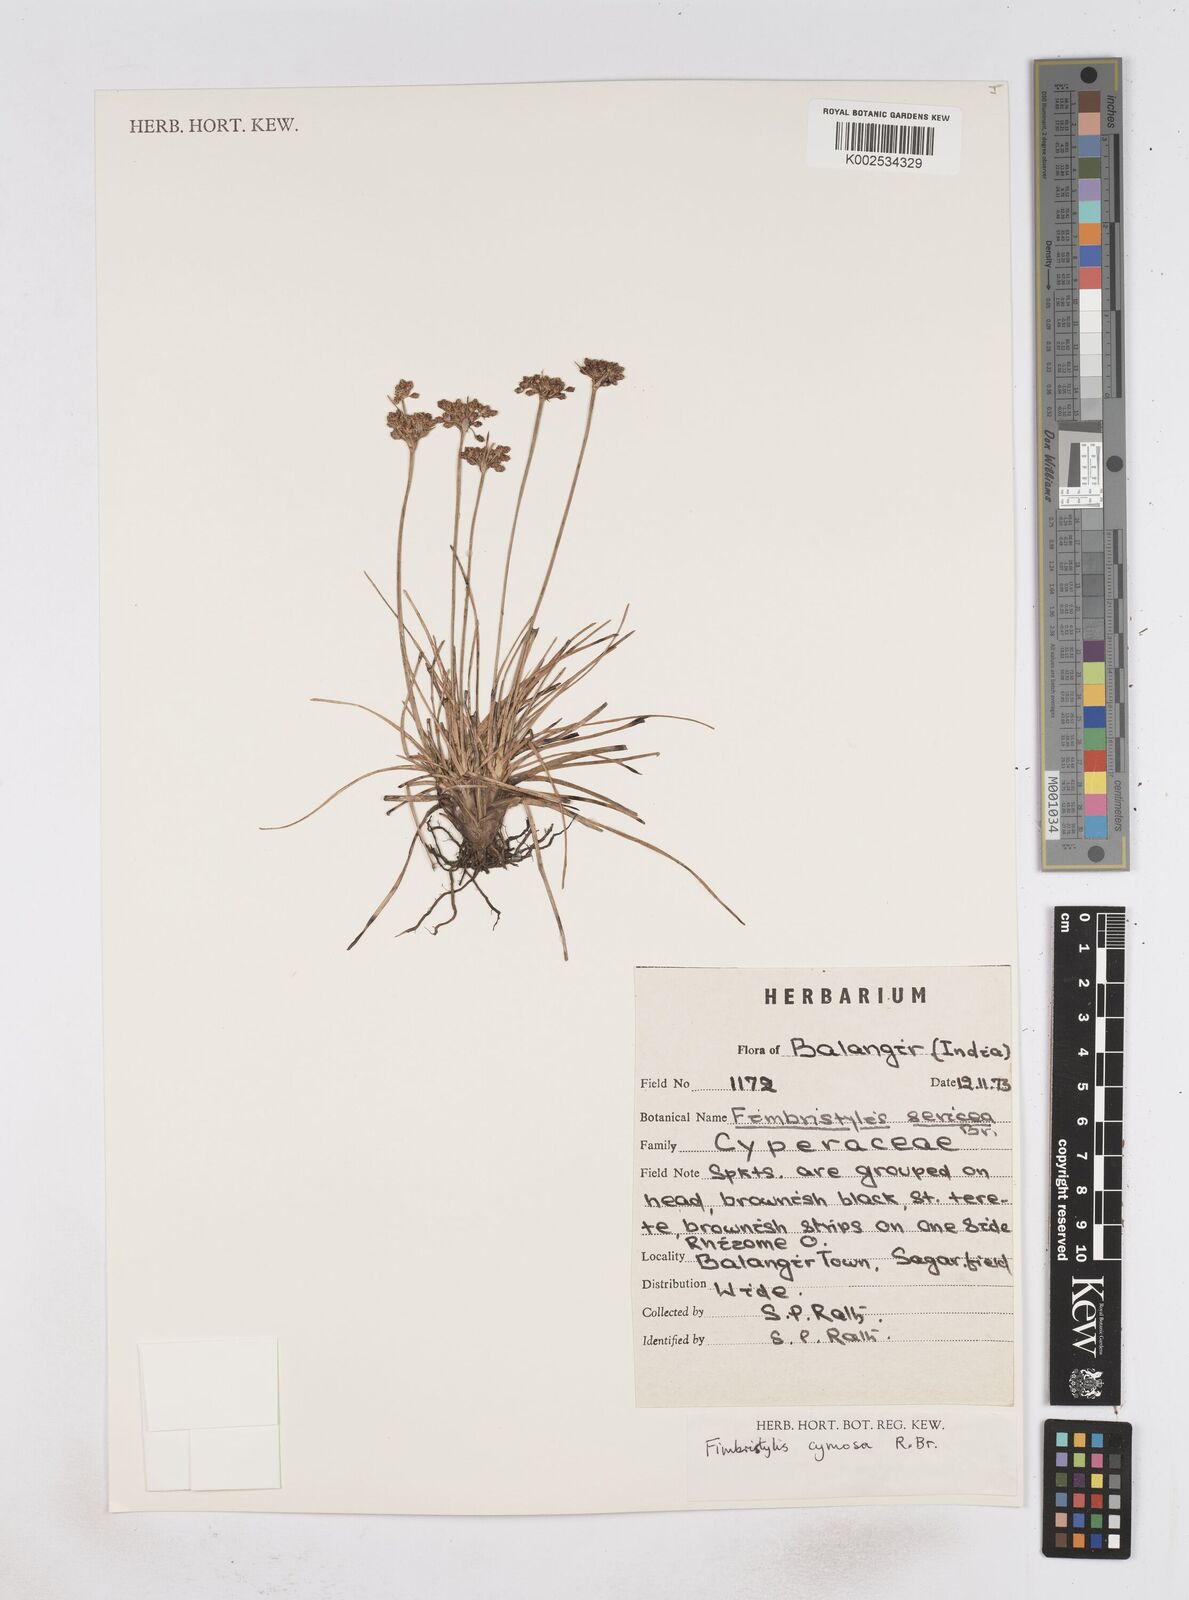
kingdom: Plantae
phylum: Tracheophyta
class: Liliopsida
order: Poales
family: Cyperaceae
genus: Fimbristylis
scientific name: Fimbristylis cymosa
